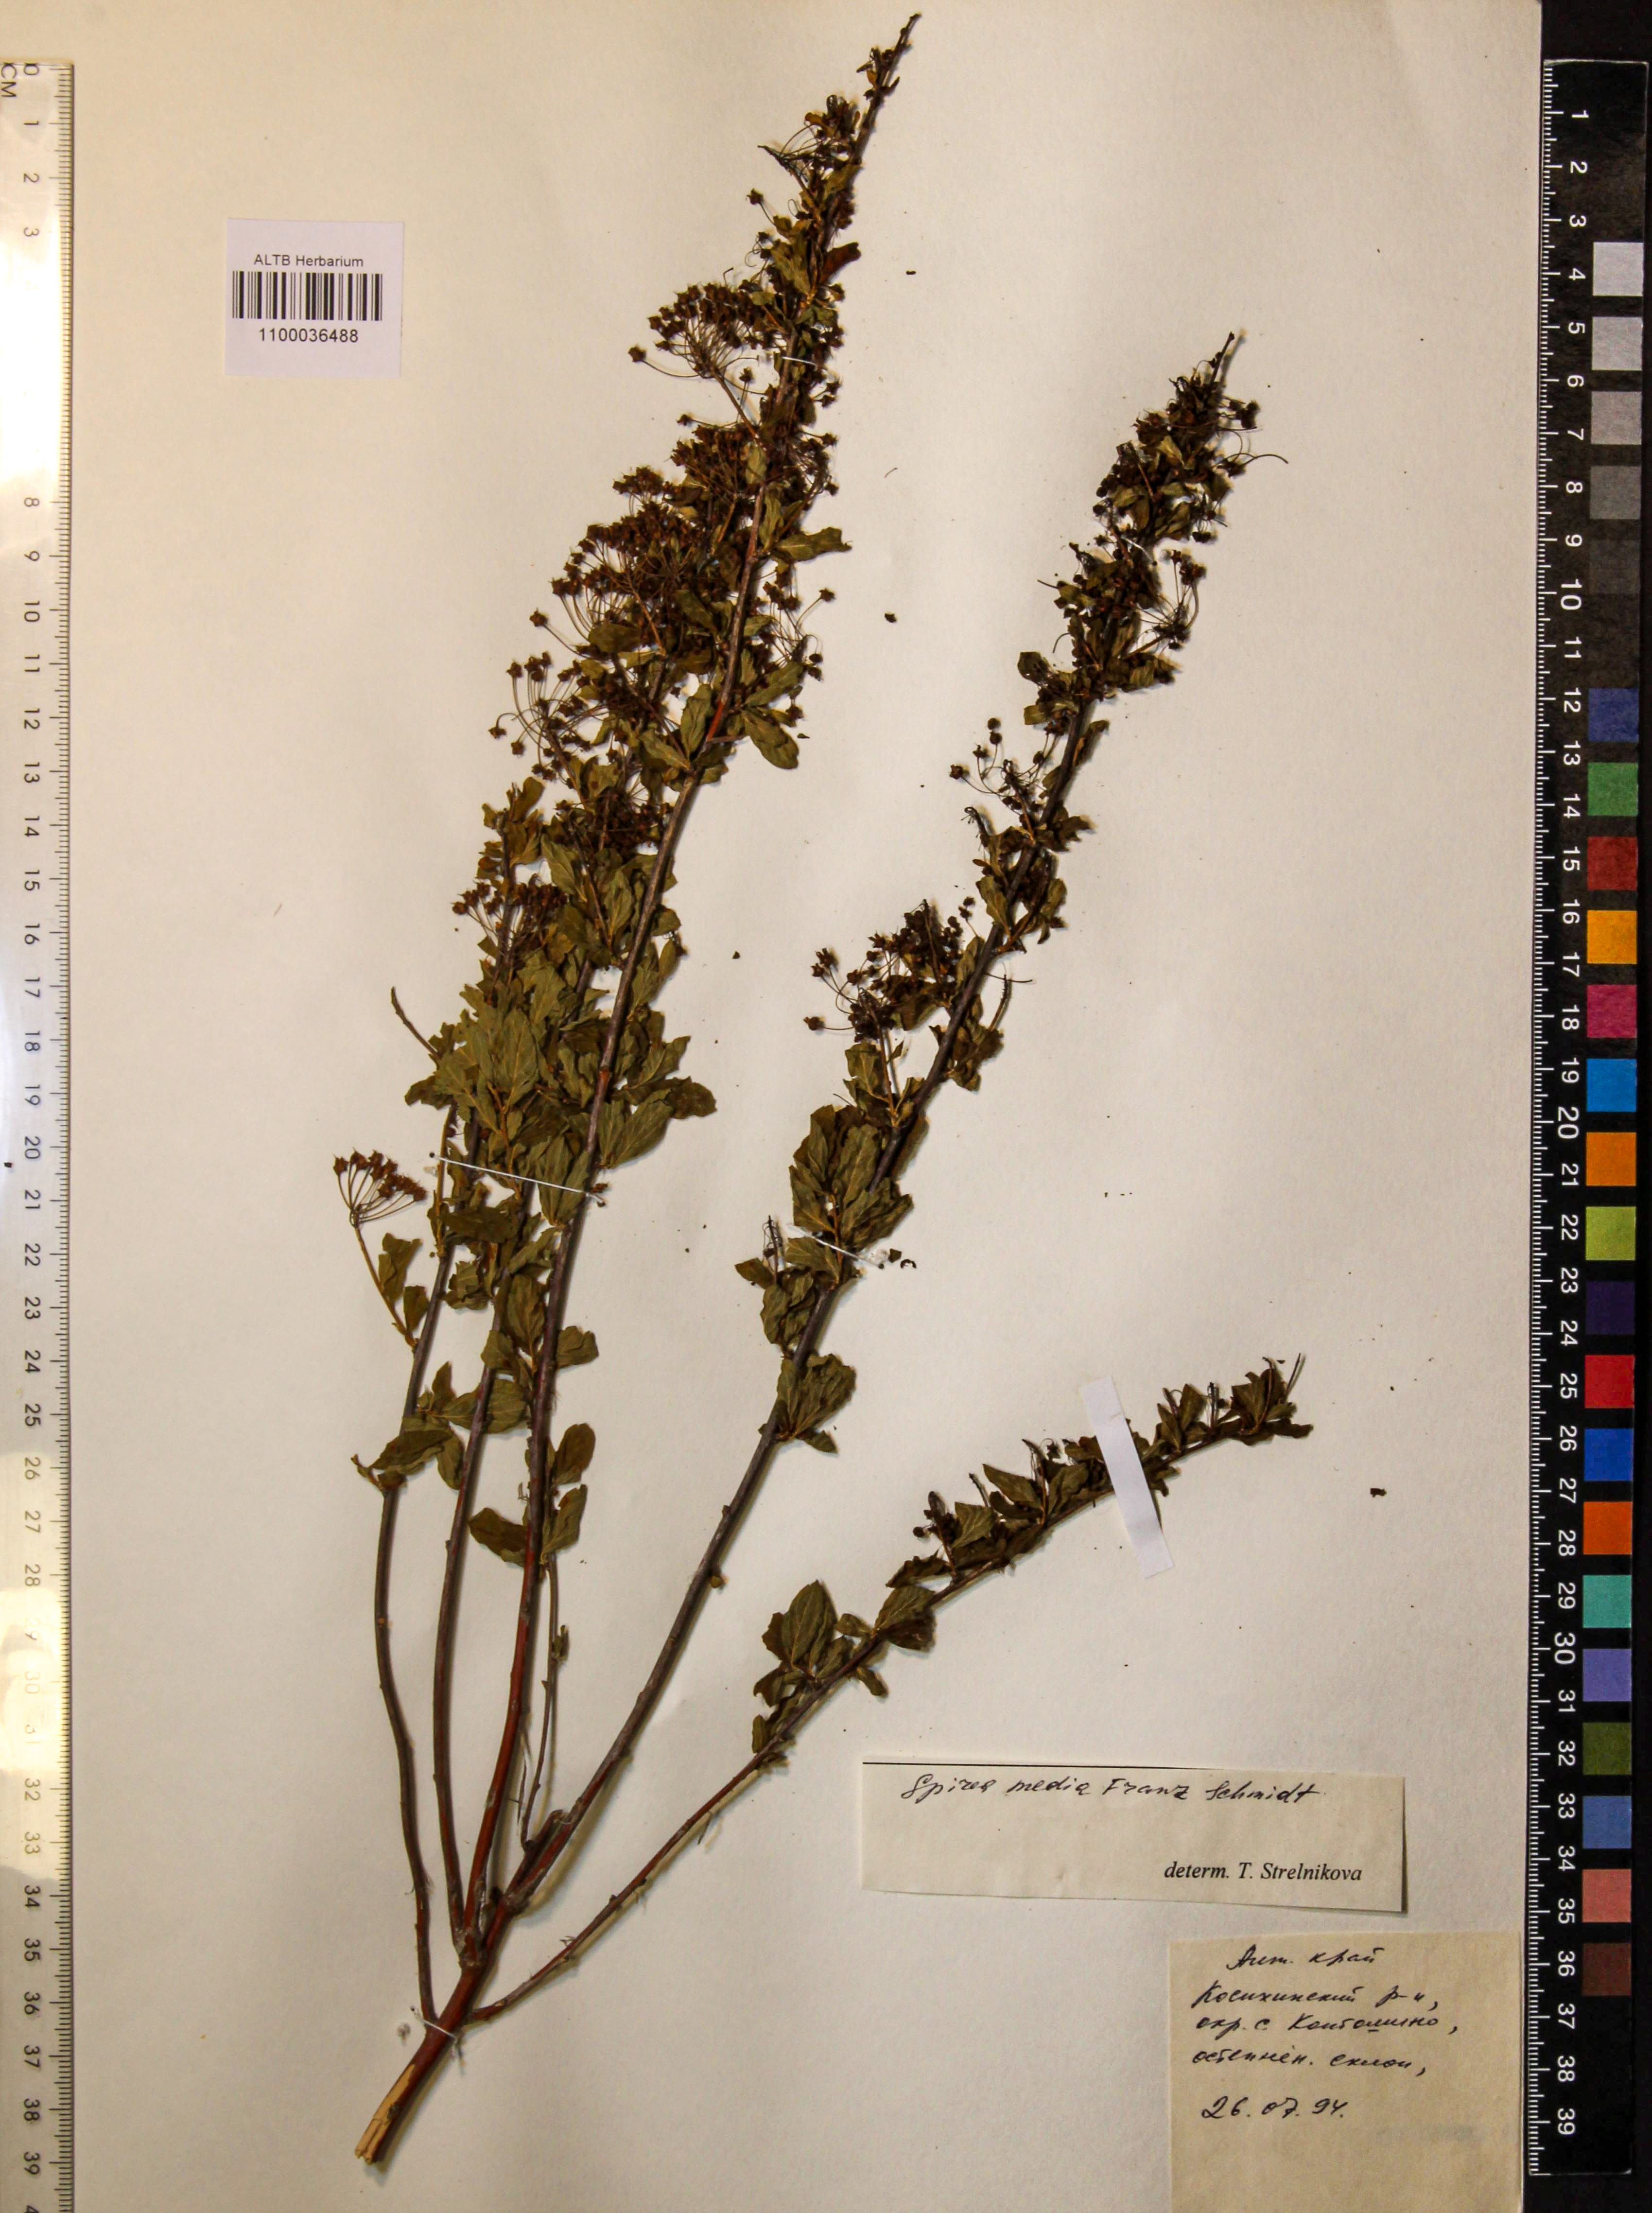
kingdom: Plantae
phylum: Tracheophyta
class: Magnoliopsida
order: Rosales
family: Rosaceae
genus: Spiraea
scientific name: Spiraea media
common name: Russian spiraea
